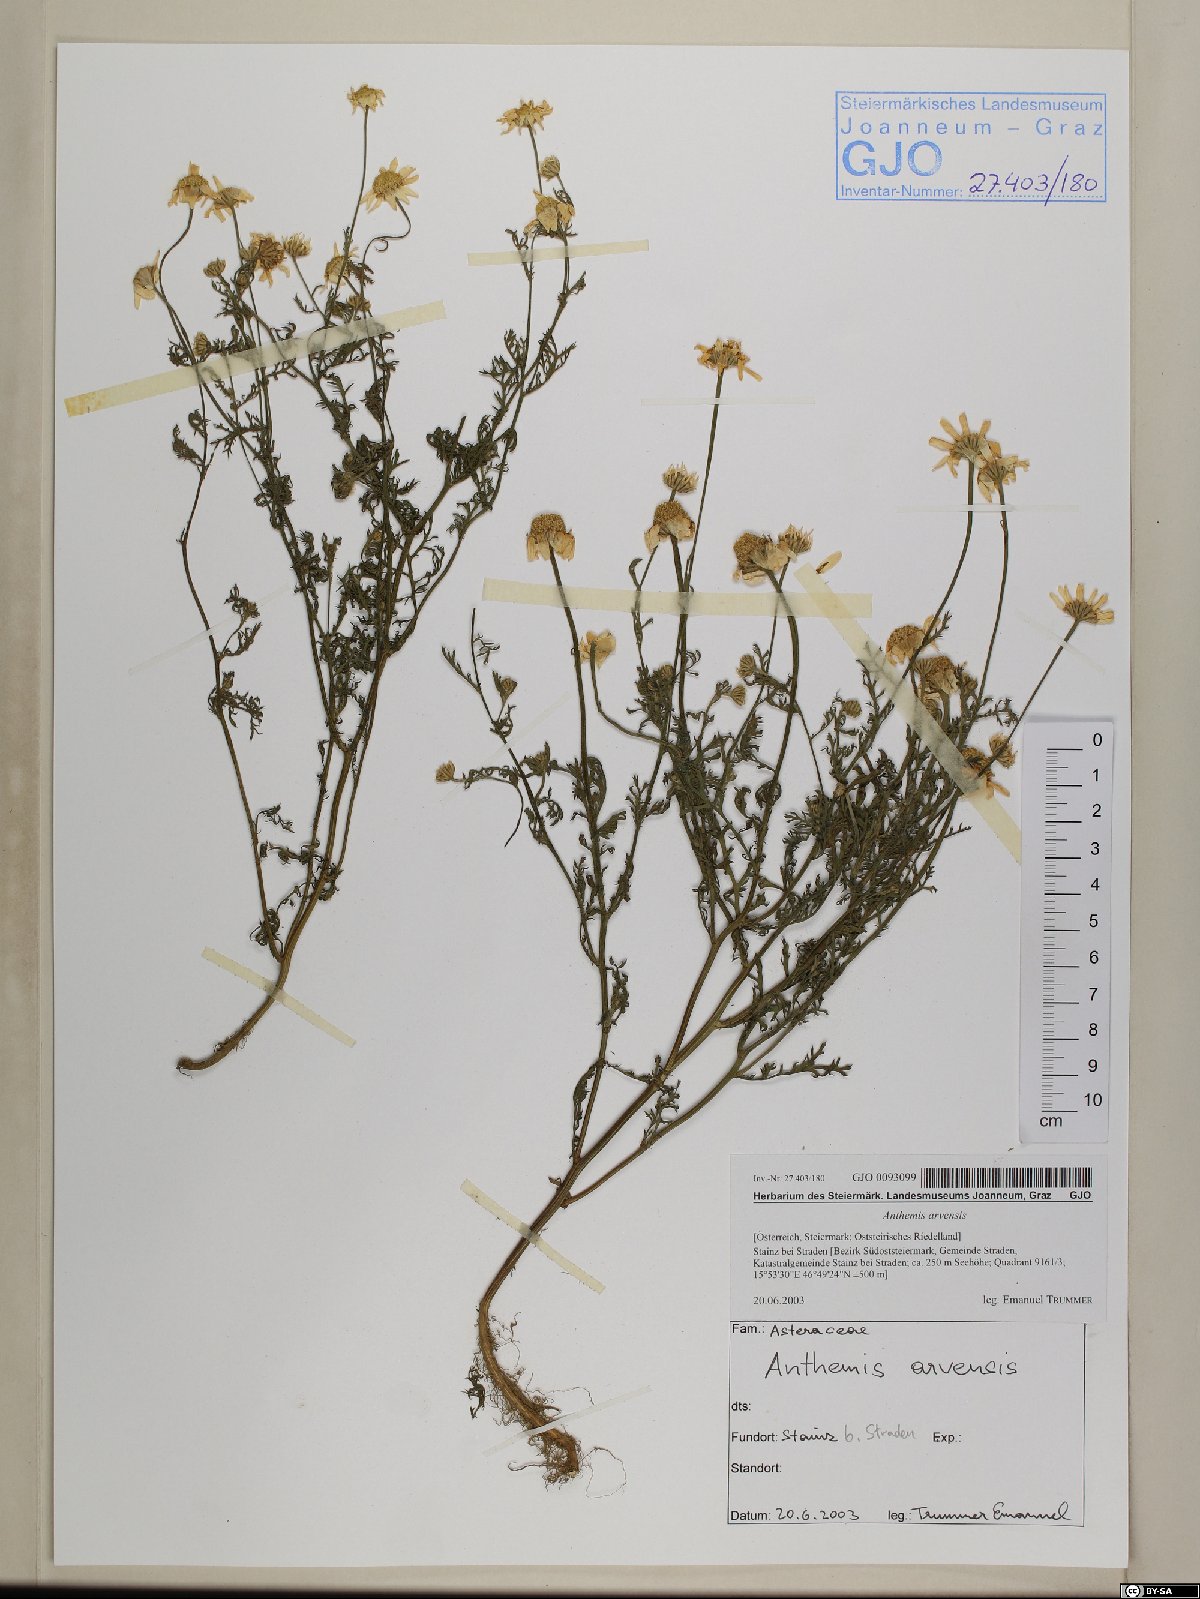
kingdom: Plantae
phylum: Tracheophyta
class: Magnoliopsida
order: Asterales
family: Asteraceae
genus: Anthemis
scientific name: Anthemis arvensis
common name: Corn chamomile
